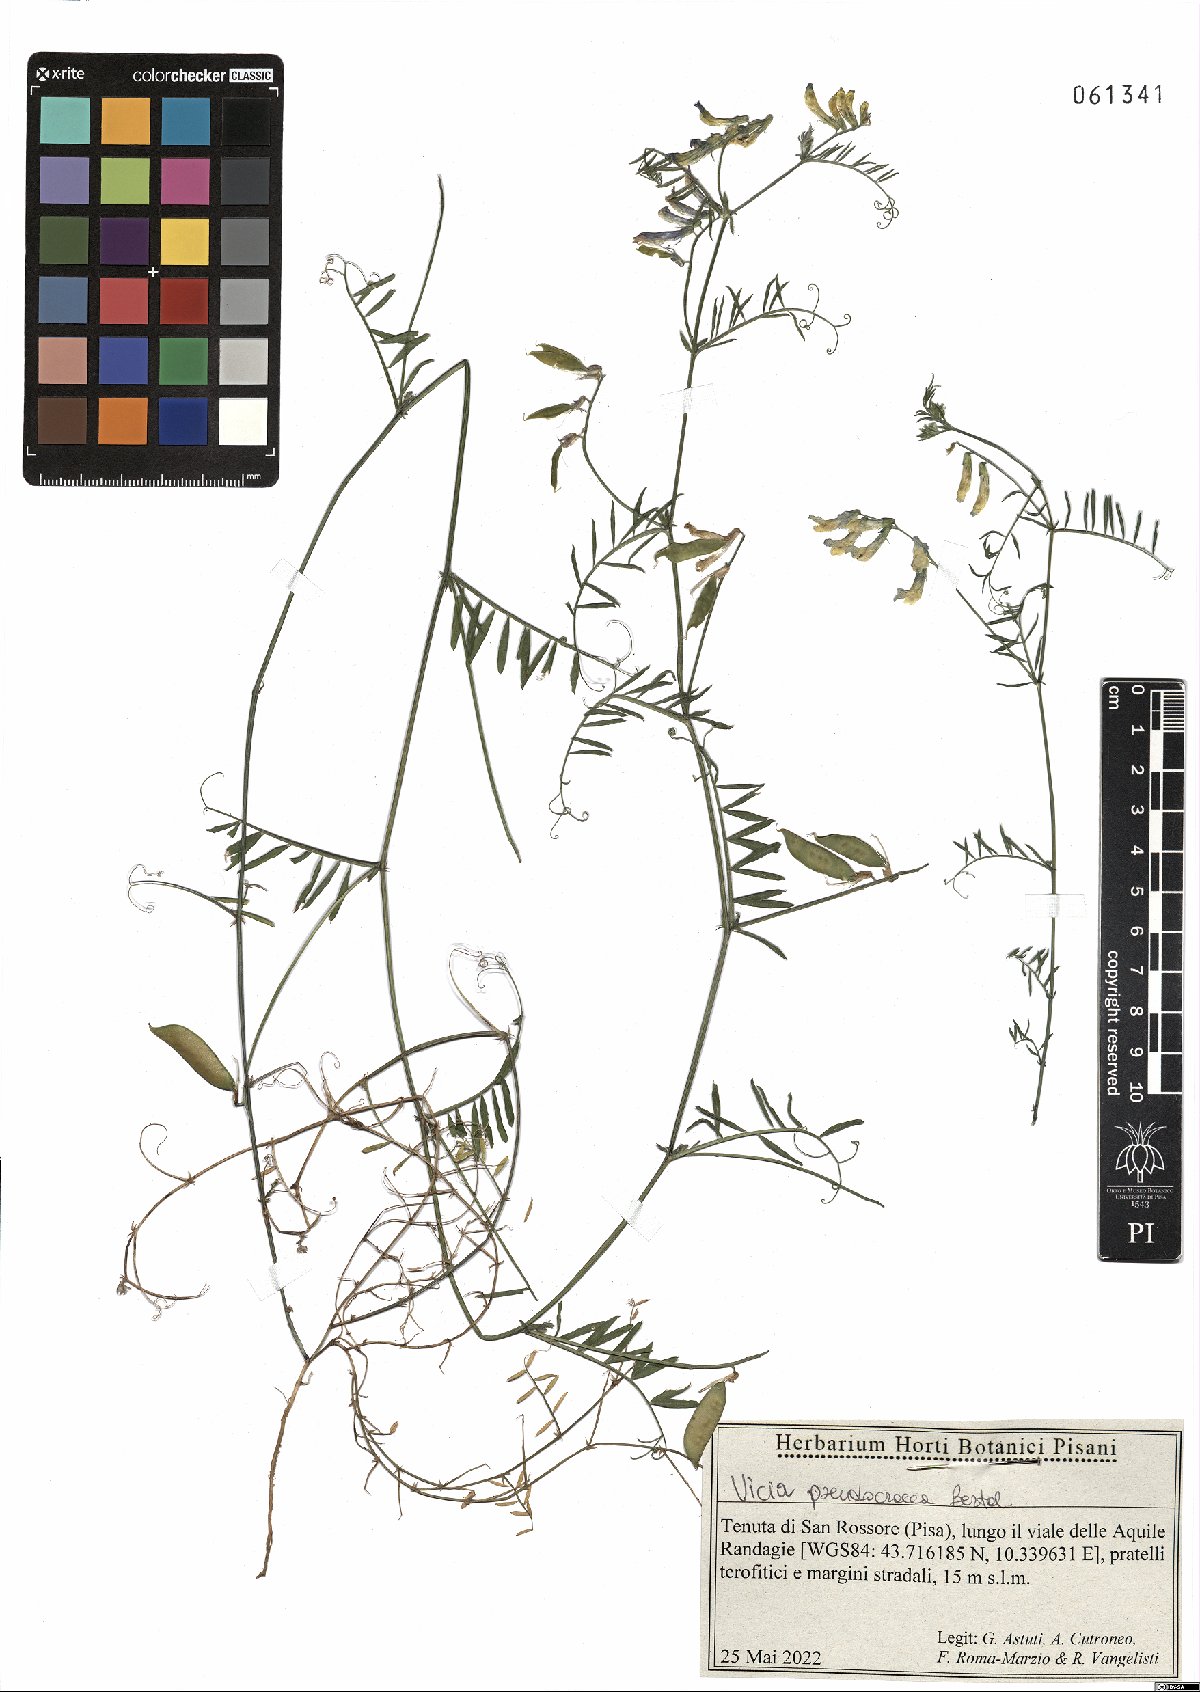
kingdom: Plantae
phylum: Tracheophyta
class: Magnoliopsida
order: Fabales
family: Fabaceae
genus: Vicia
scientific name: Vicia villosa
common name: Fodder vetch
